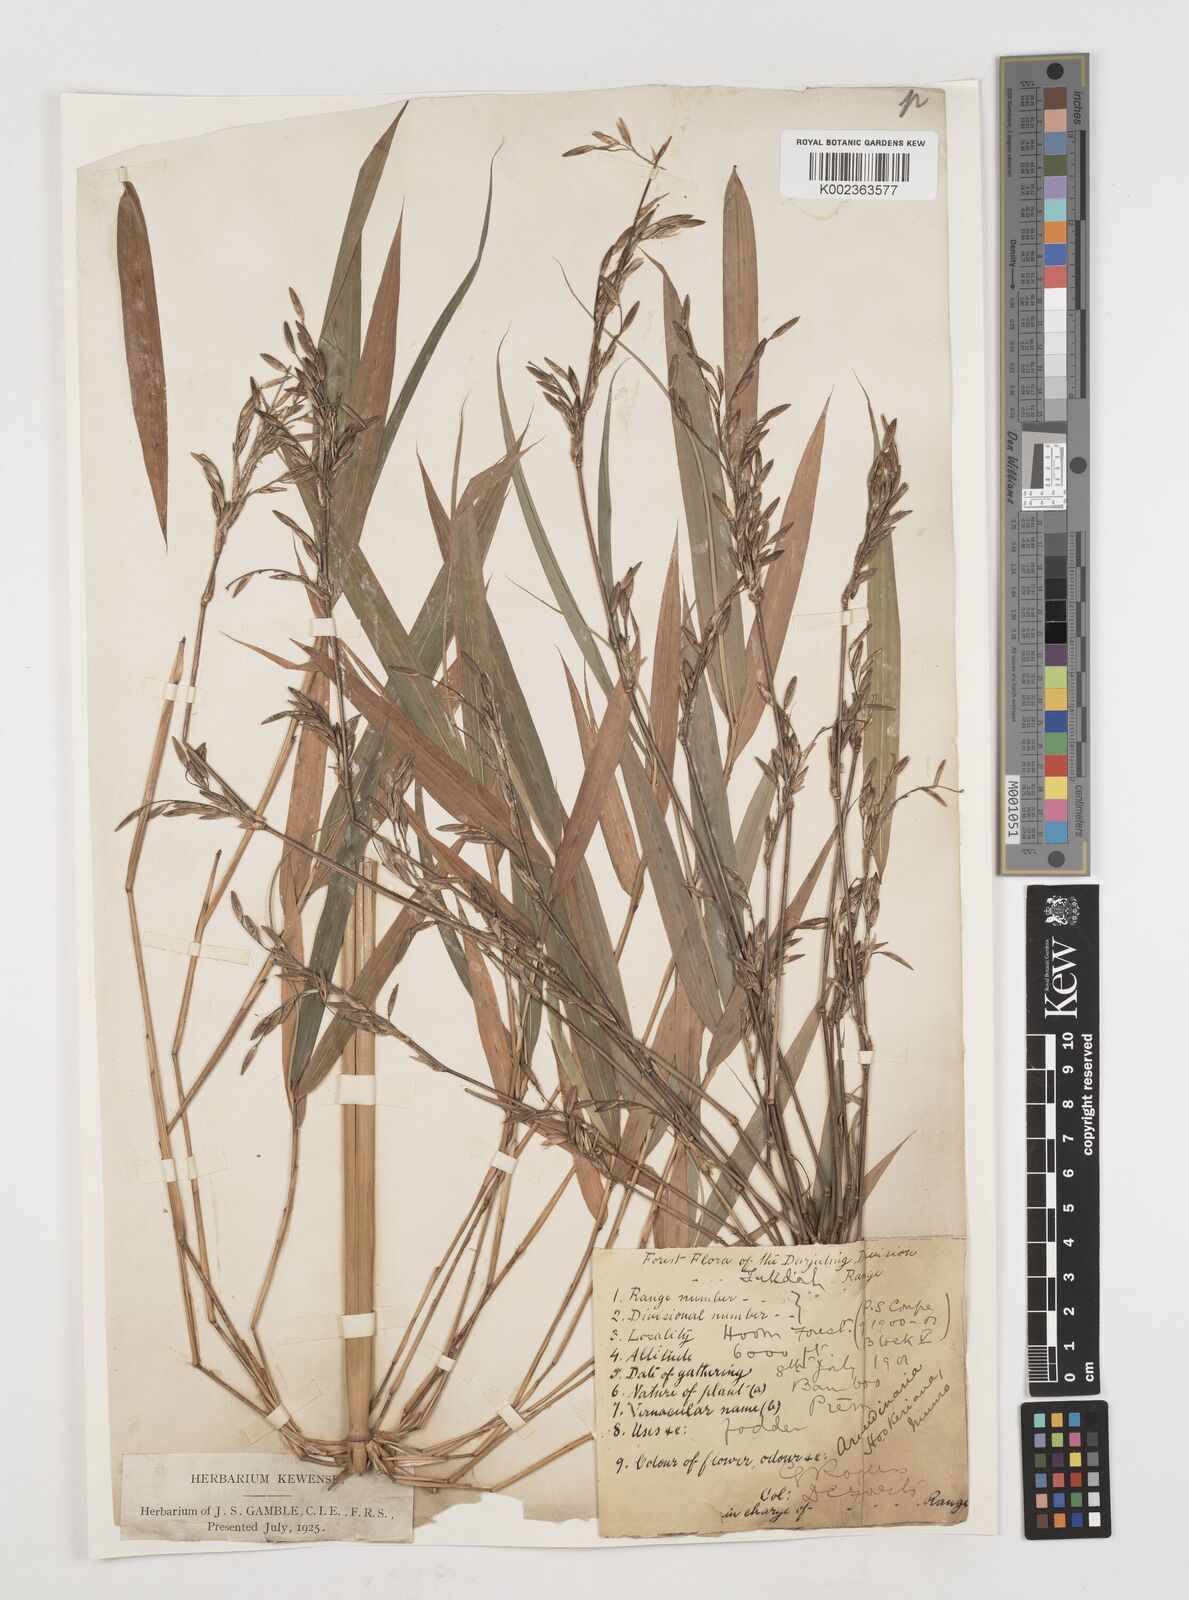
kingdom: Plantae
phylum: Tracheophyta
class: Liliopsida
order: Poales
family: Poaceae
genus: Himalayacalamus
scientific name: Himalayacalamus hookerianus
